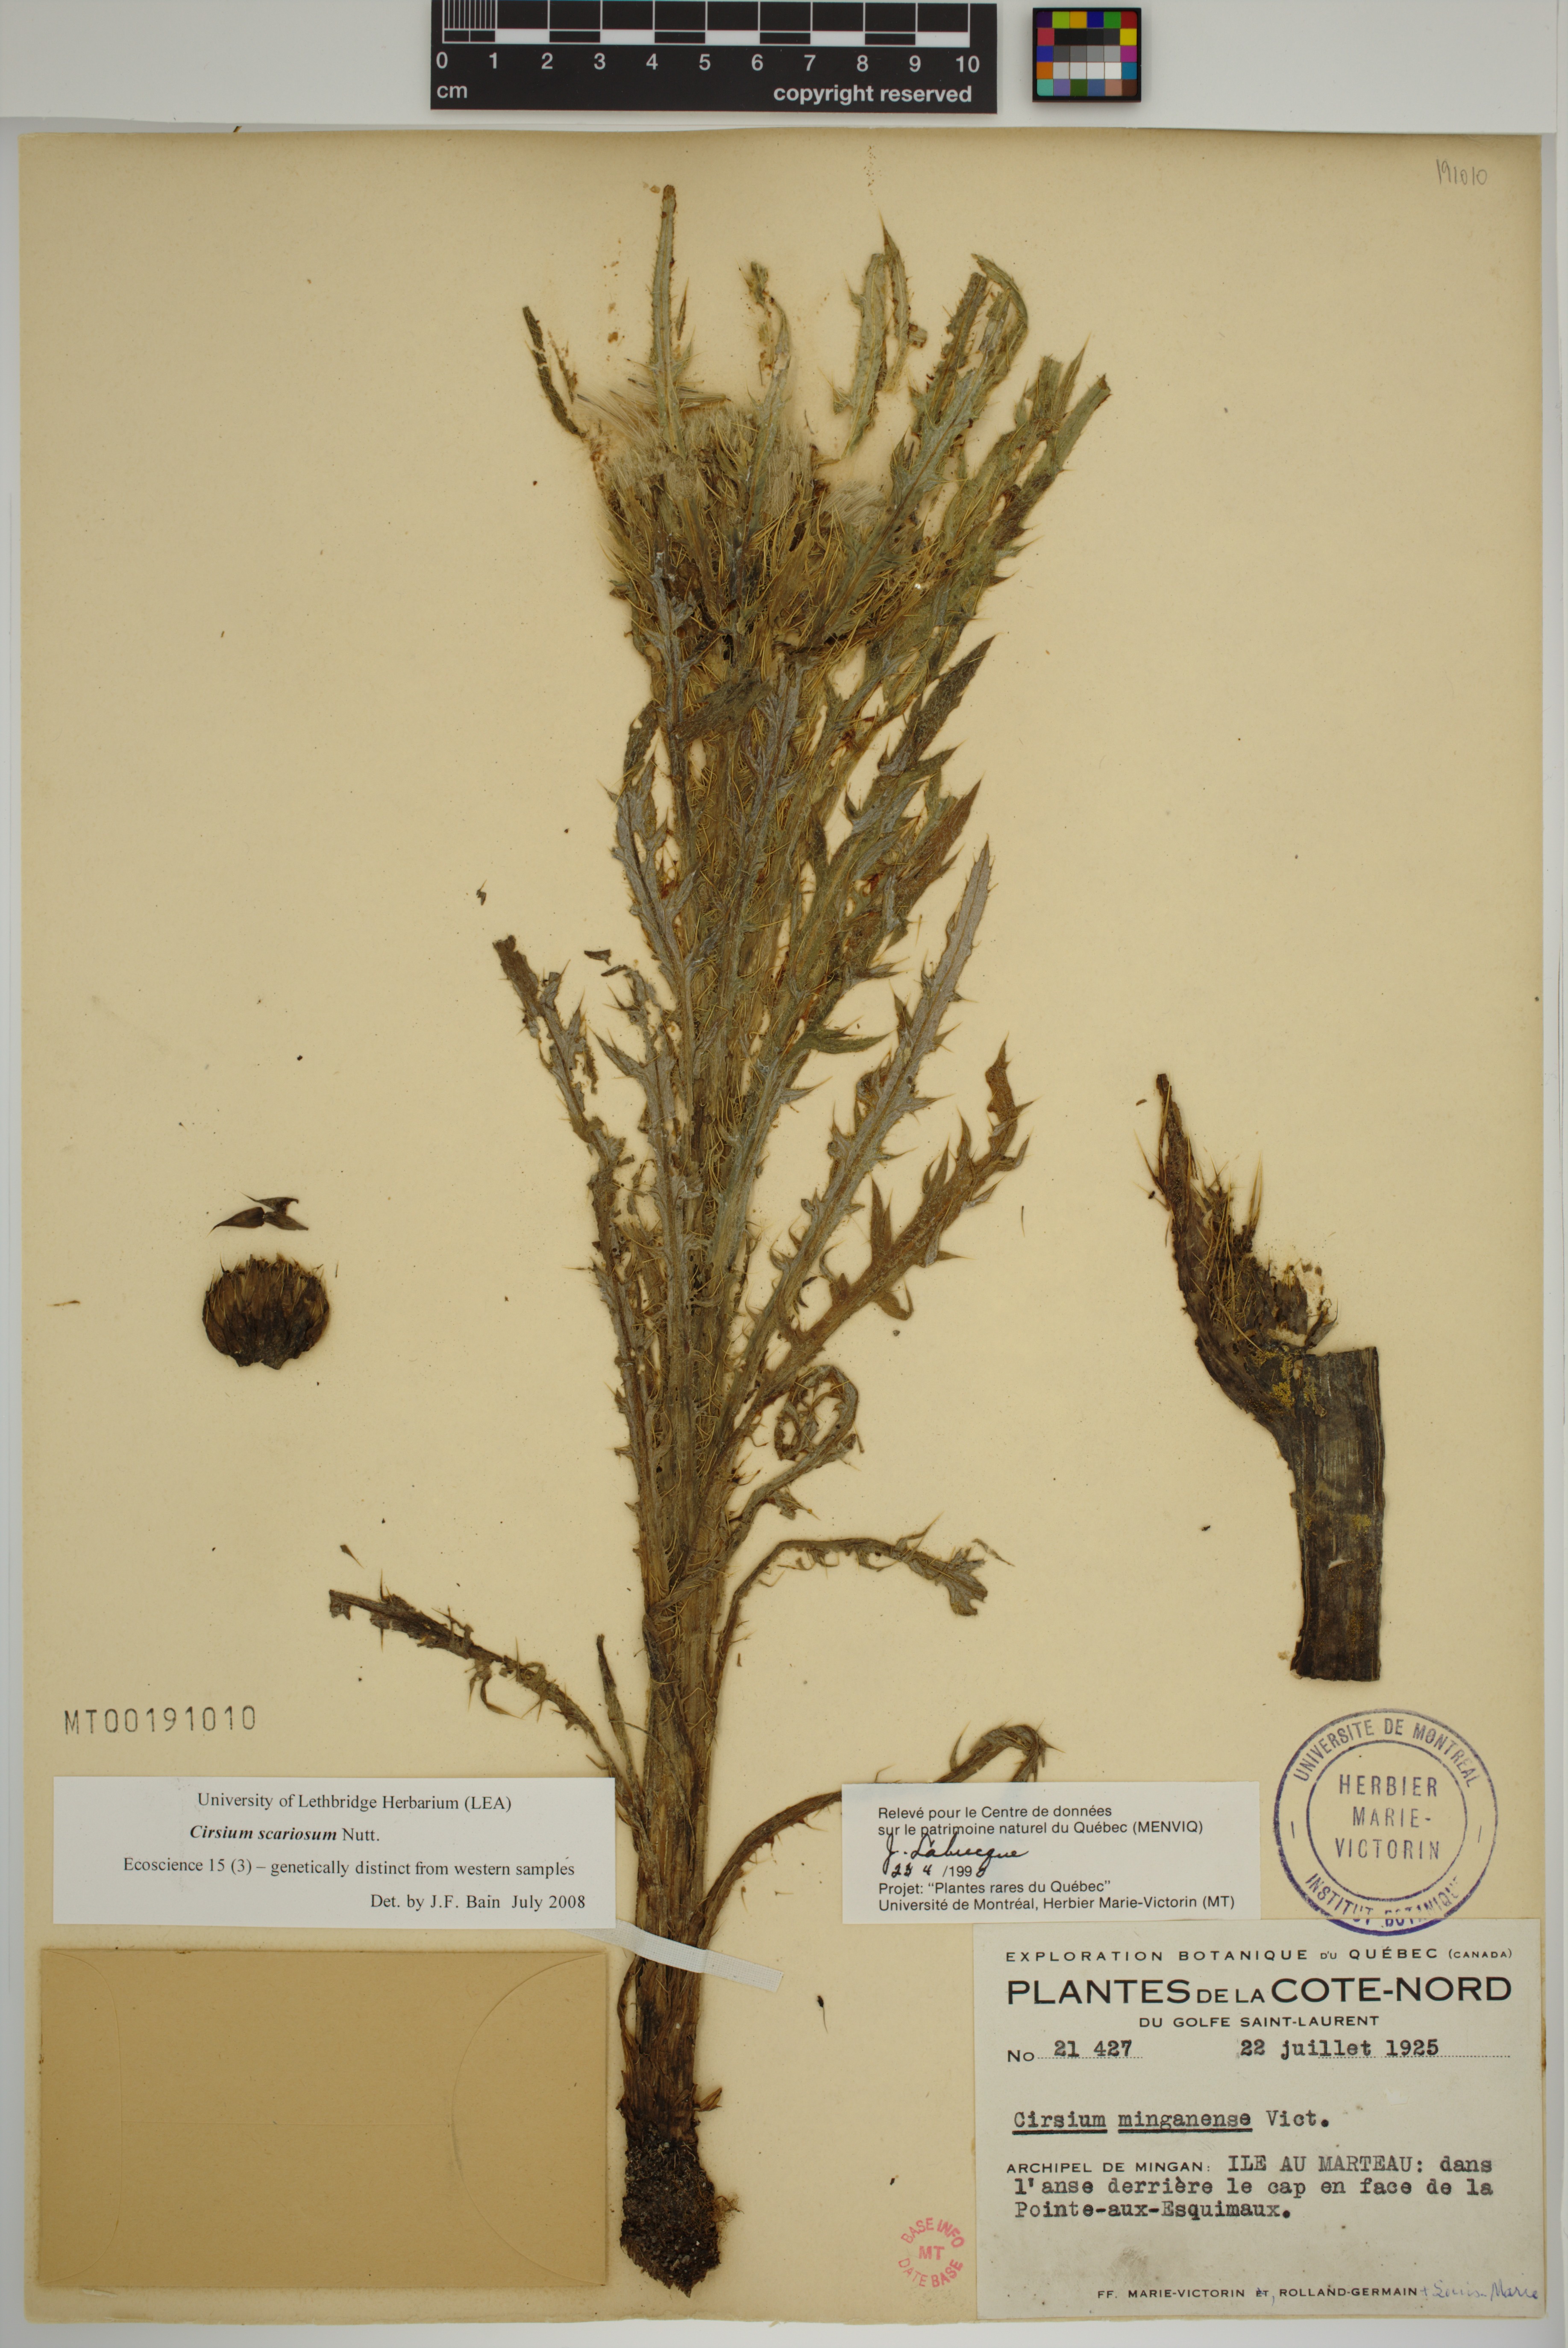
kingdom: Plantae
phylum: Tracheophyta
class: Magnoliopsida
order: Asterales
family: Asteraceae
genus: Cirsium
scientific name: Cirsium scariosum
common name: Meadow thistle
